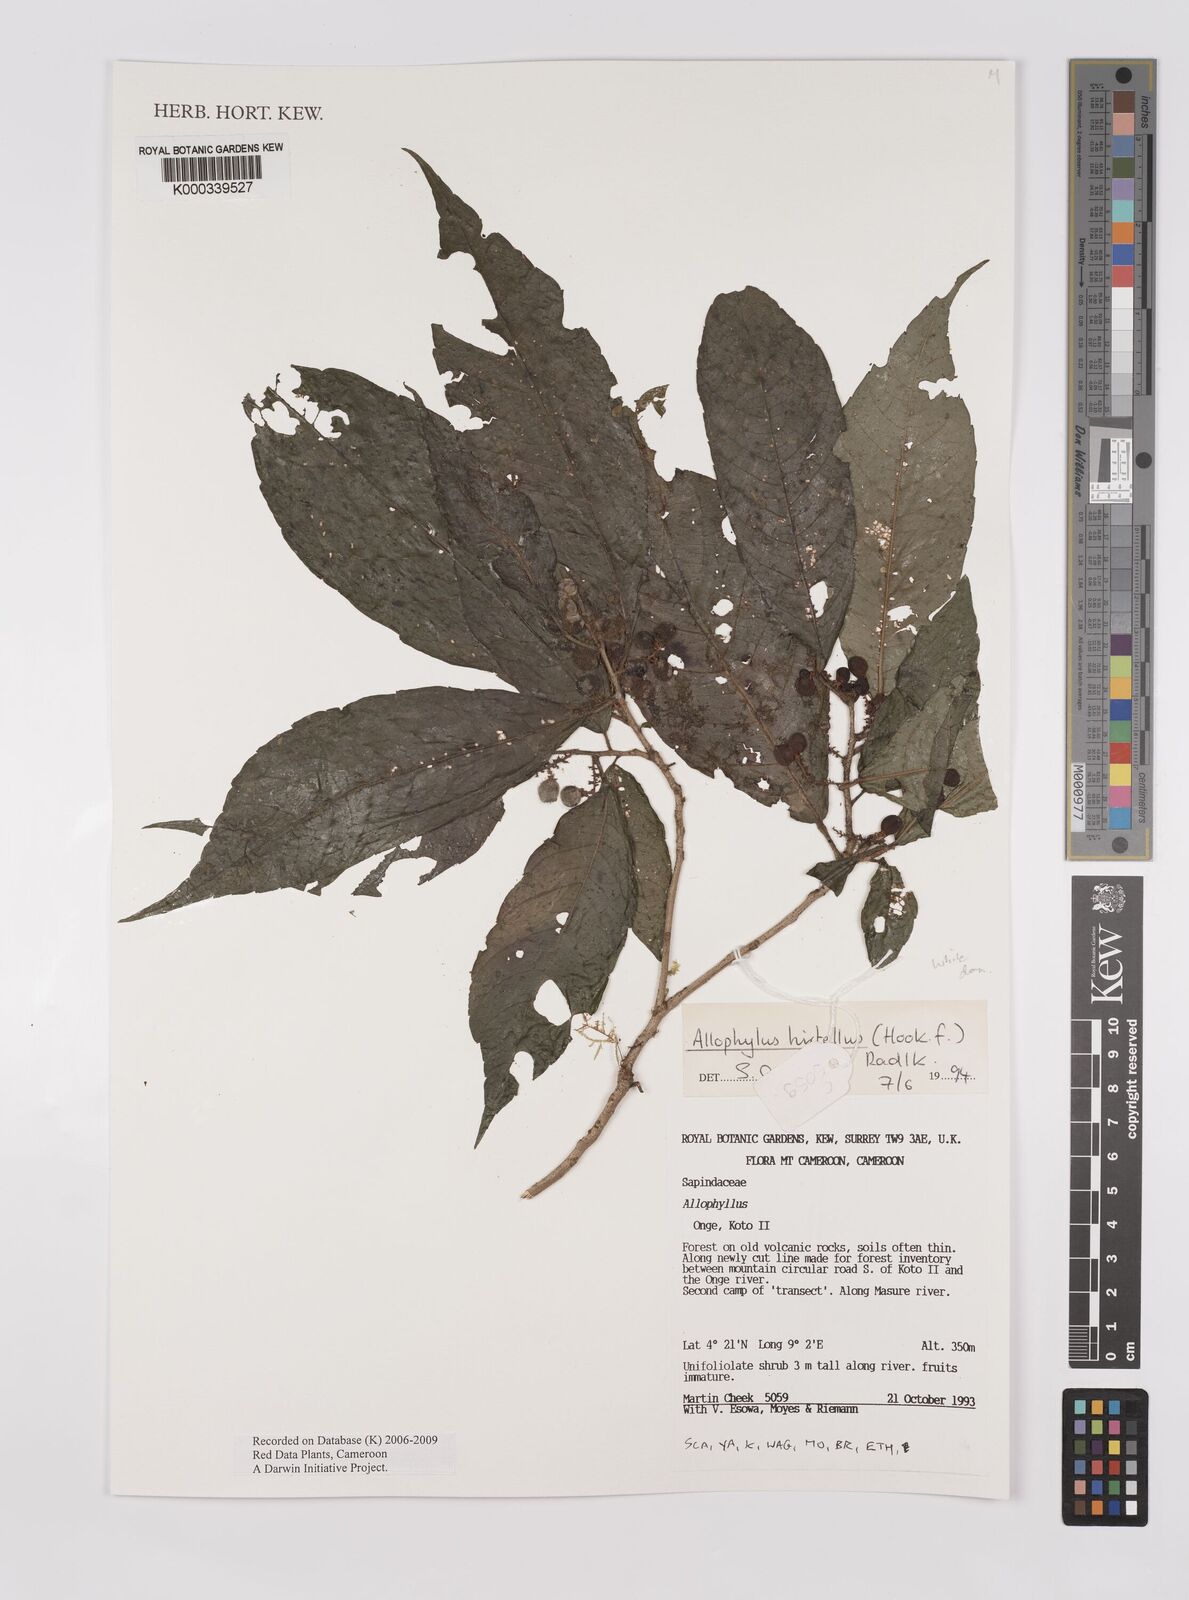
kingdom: Plantae
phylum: Tracheophyta
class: Magnoliopsida
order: Sapindales
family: Sapindaceae
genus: Allophylus
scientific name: Allophylus hirtellus
